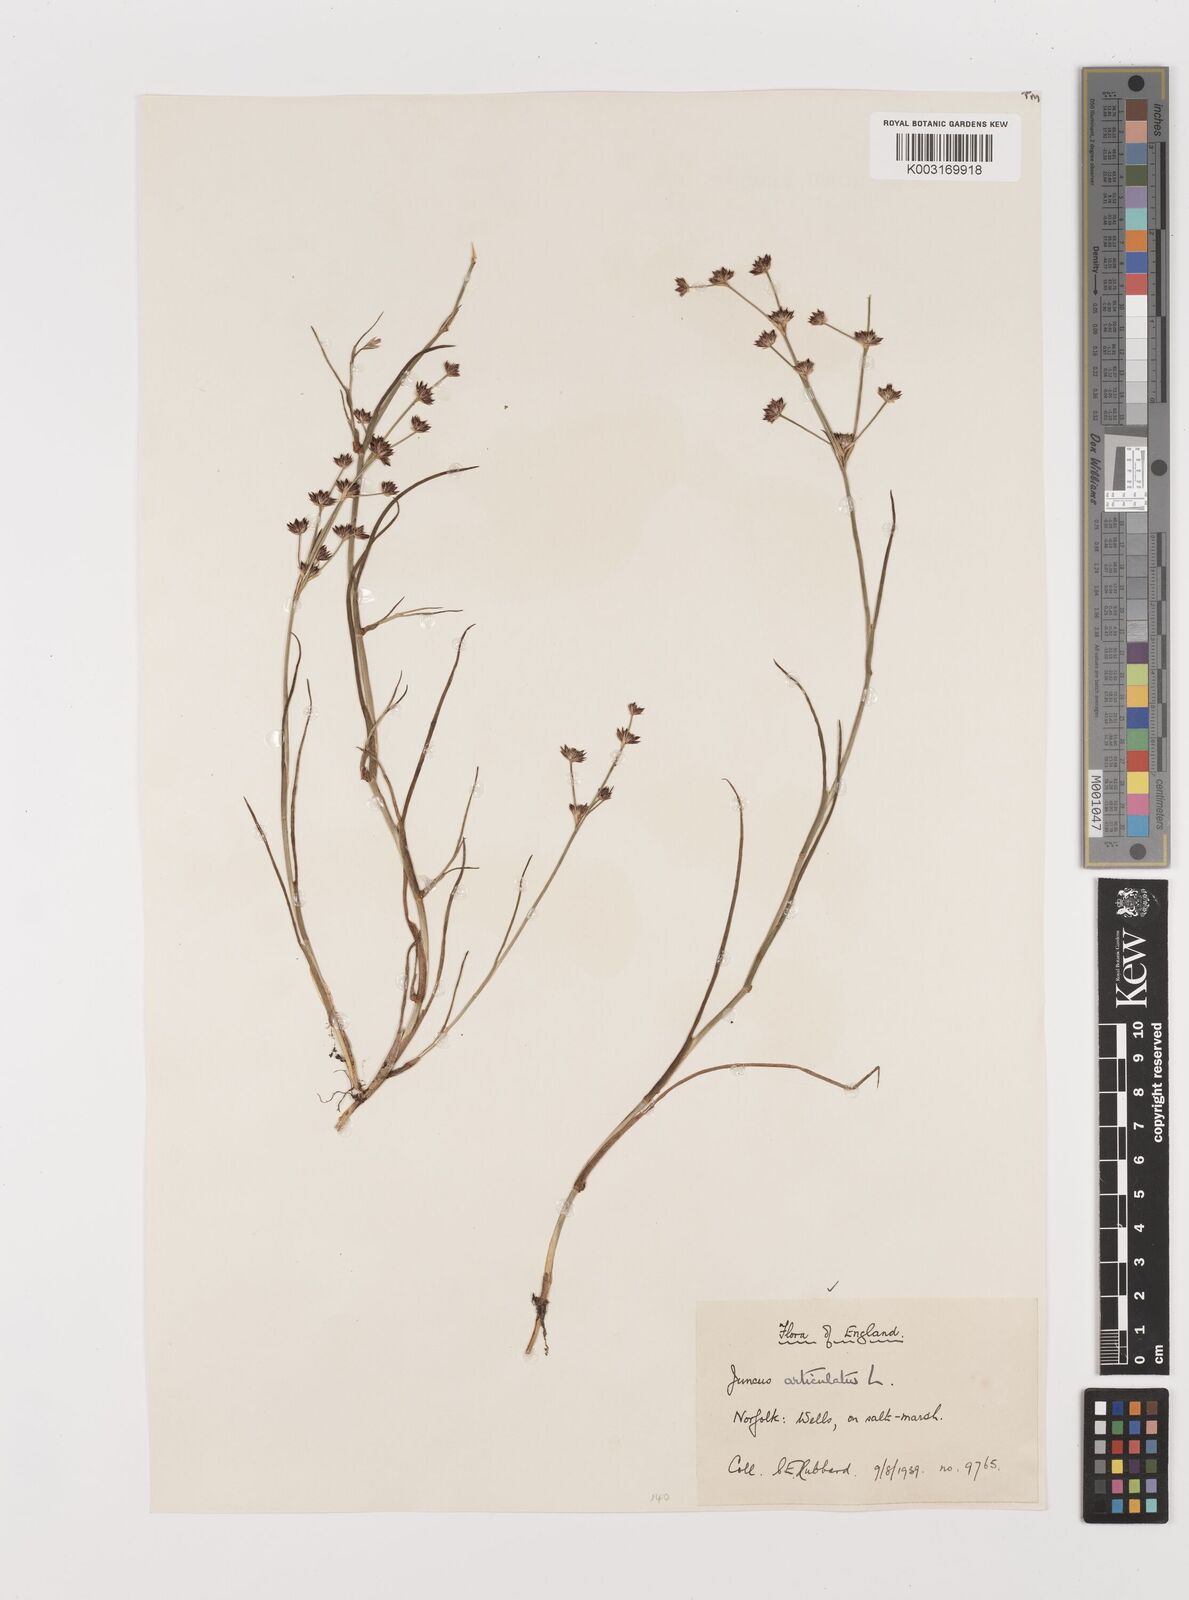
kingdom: Plantae
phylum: Tracheophyta
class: Liliopsida
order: Poales
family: Juncaceae
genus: Juncus
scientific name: Juncus articulatus
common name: Jointed rush
